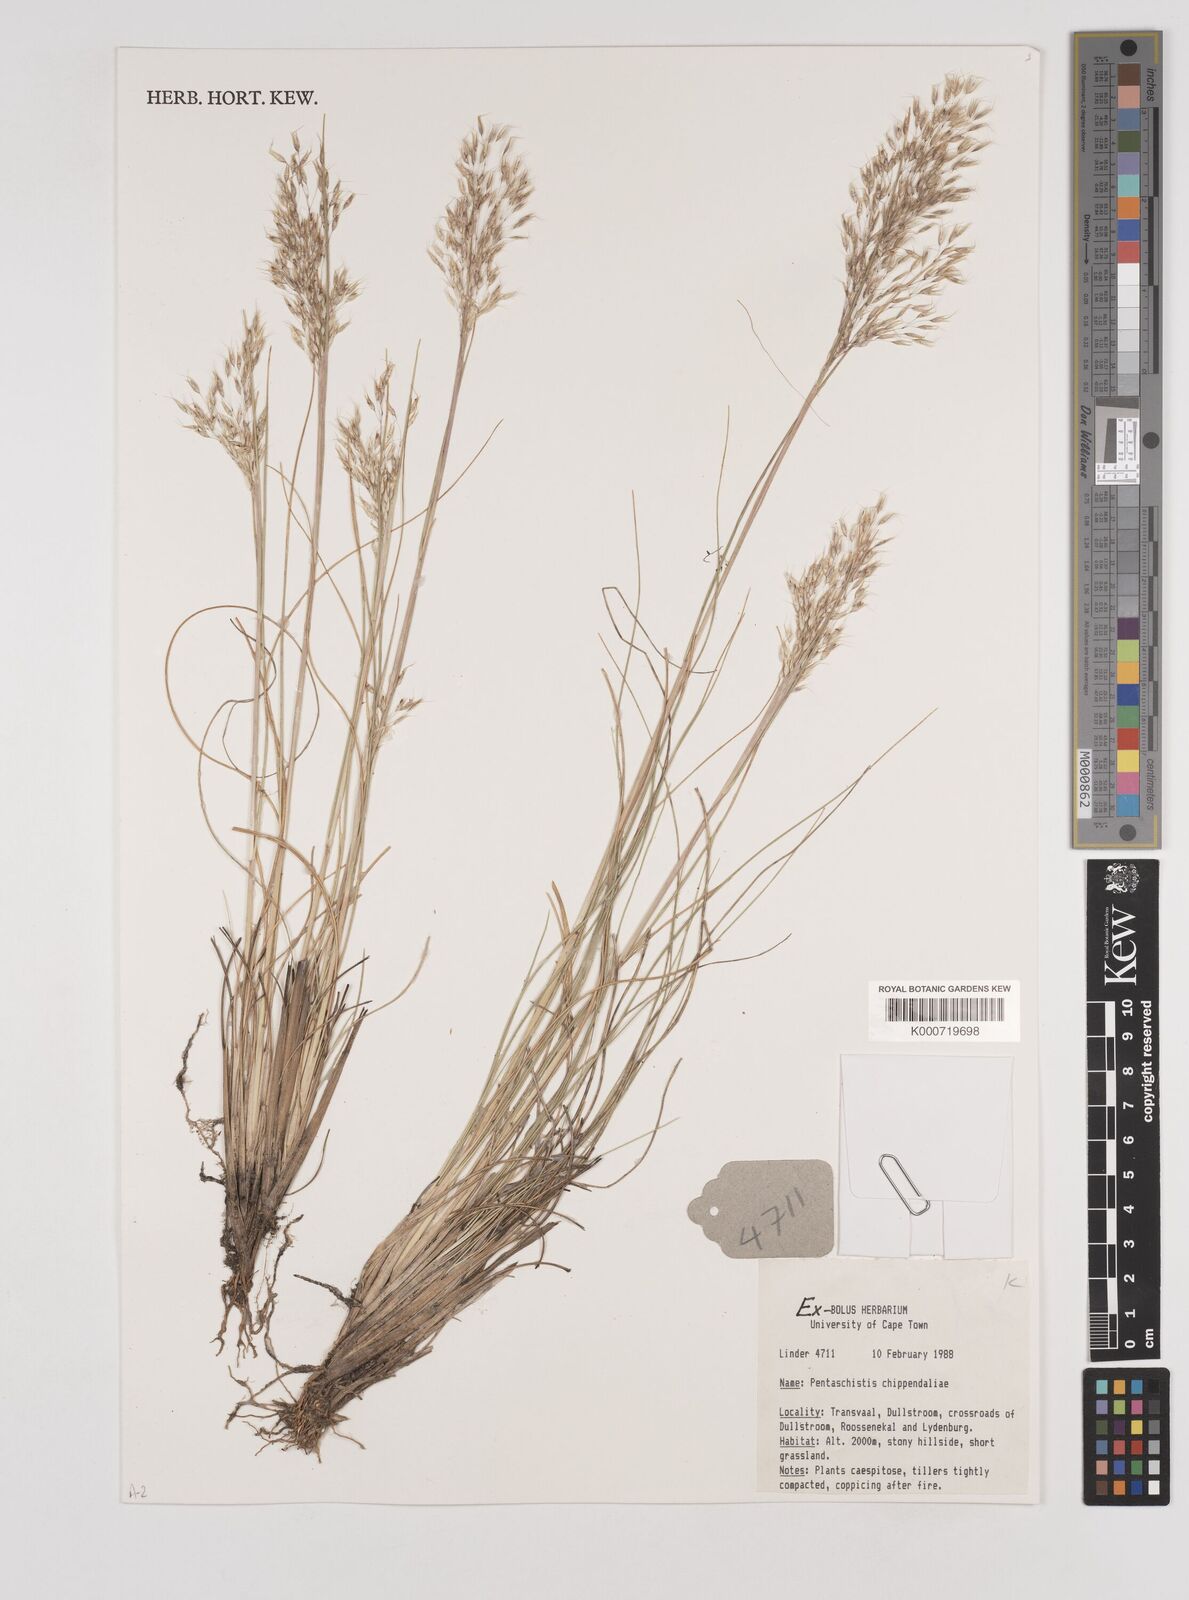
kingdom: Plantae
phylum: Tracheophyta
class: Liliopsida
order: Poales
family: Poaceae
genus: Pentameris
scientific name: Pentameris chippindalliae
